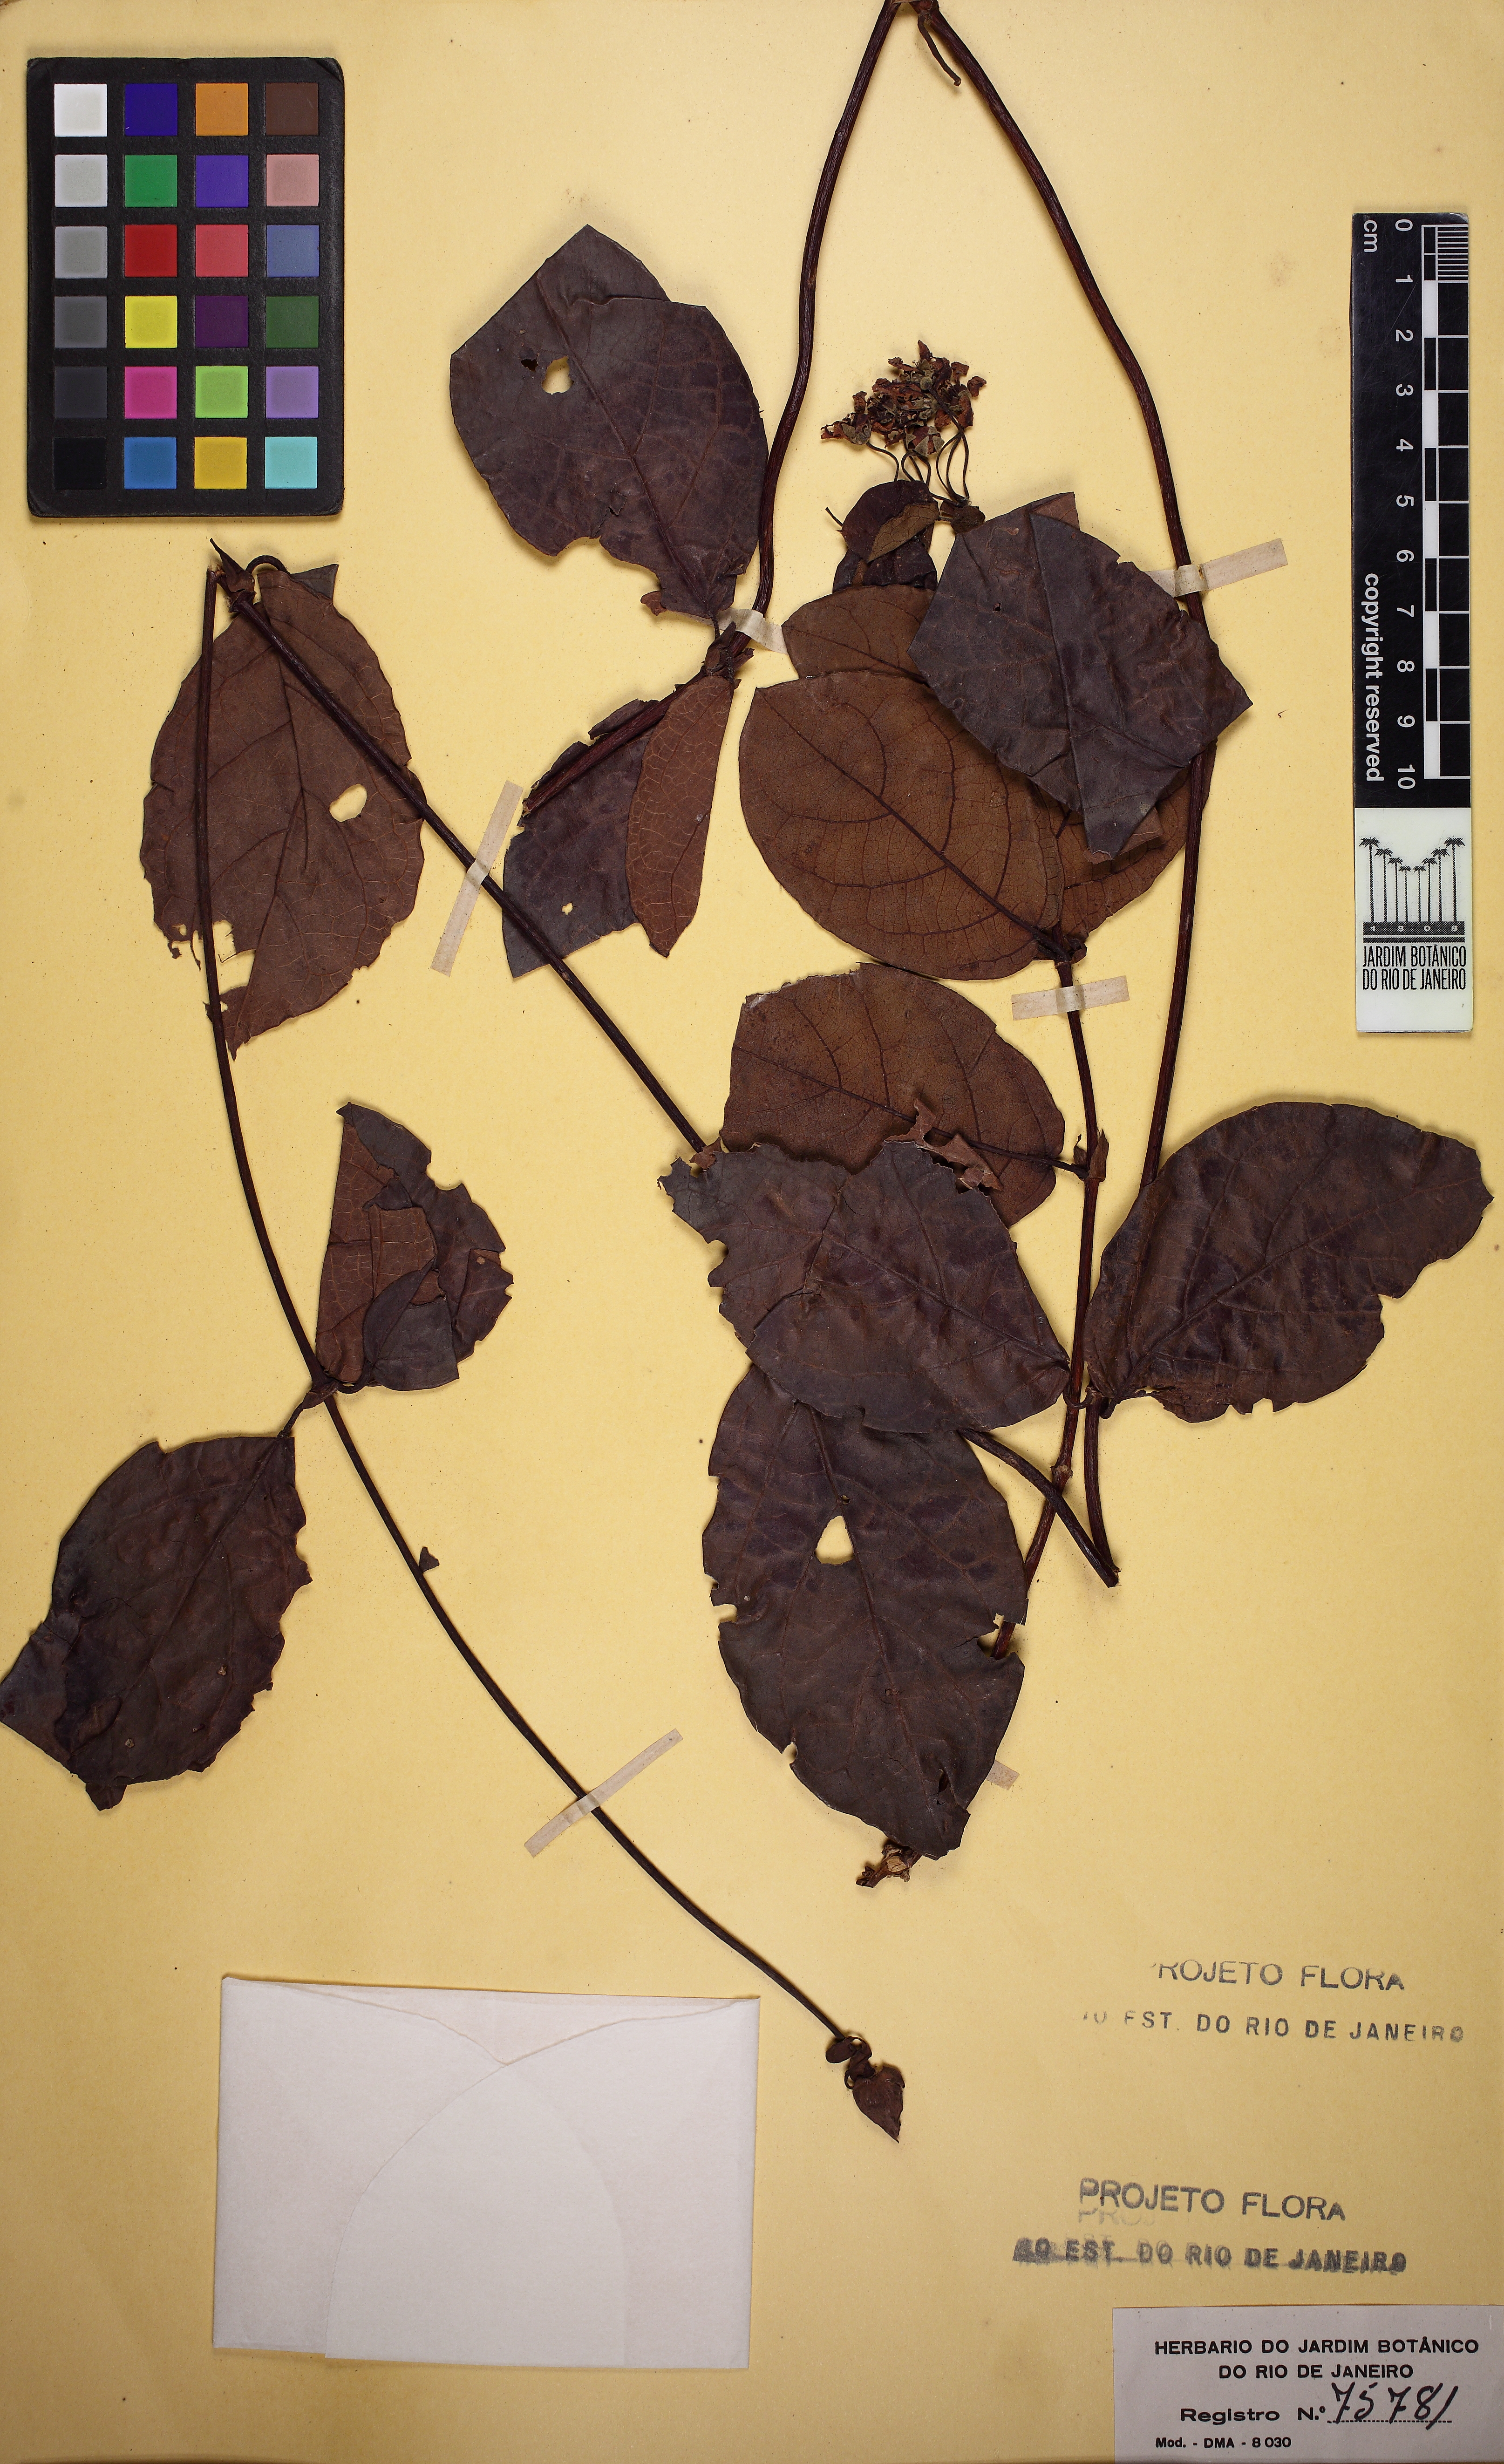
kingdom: Plantae
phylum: Tracheophyta
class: Magnoliopsida
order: Malpighiales
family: Malpighiaceae
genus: Peixotoa
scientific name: Peixotoa
